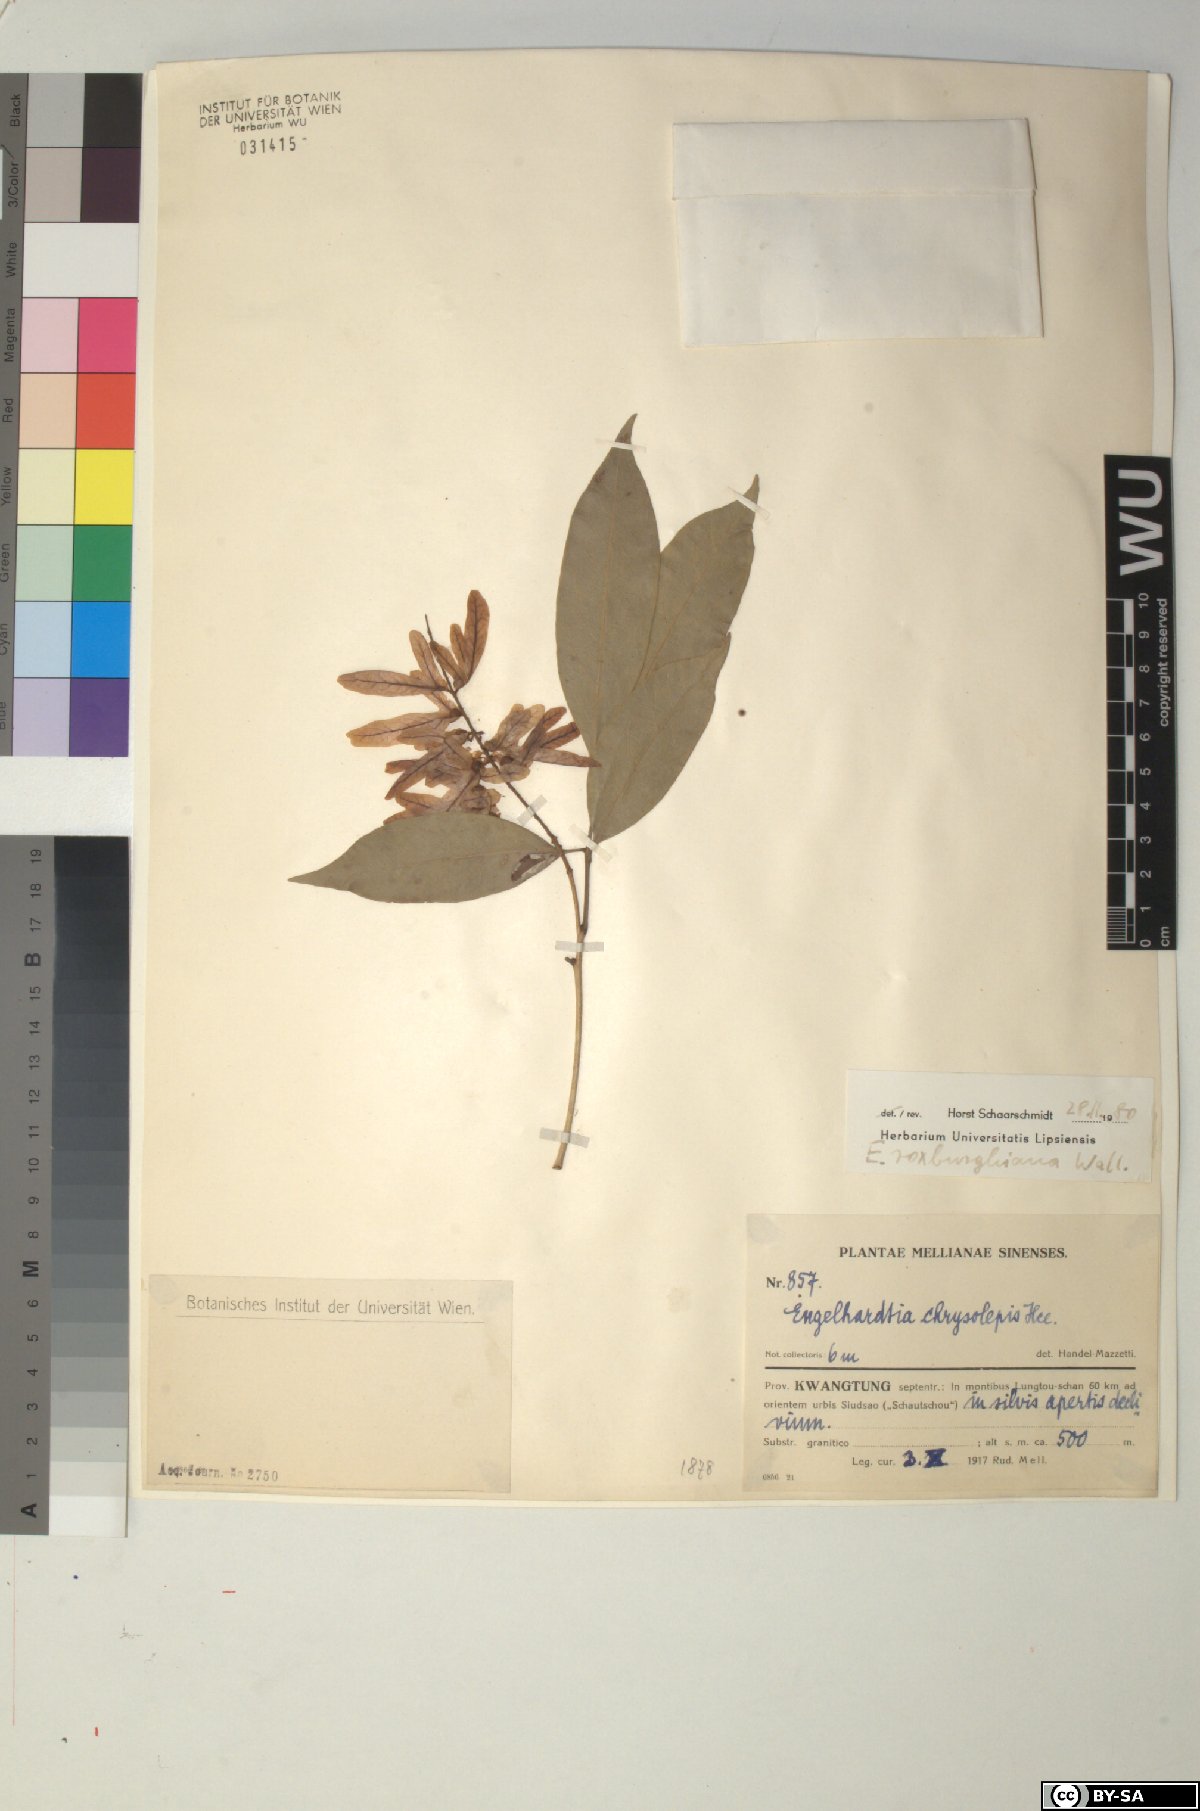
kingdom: Plantae
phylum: Tracheophyta
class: Magnoliopsida
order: Fagales
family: Juglandaceae
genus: Engelhardia
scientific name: Engelhardia roxburghiana
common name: Golden malay beam
